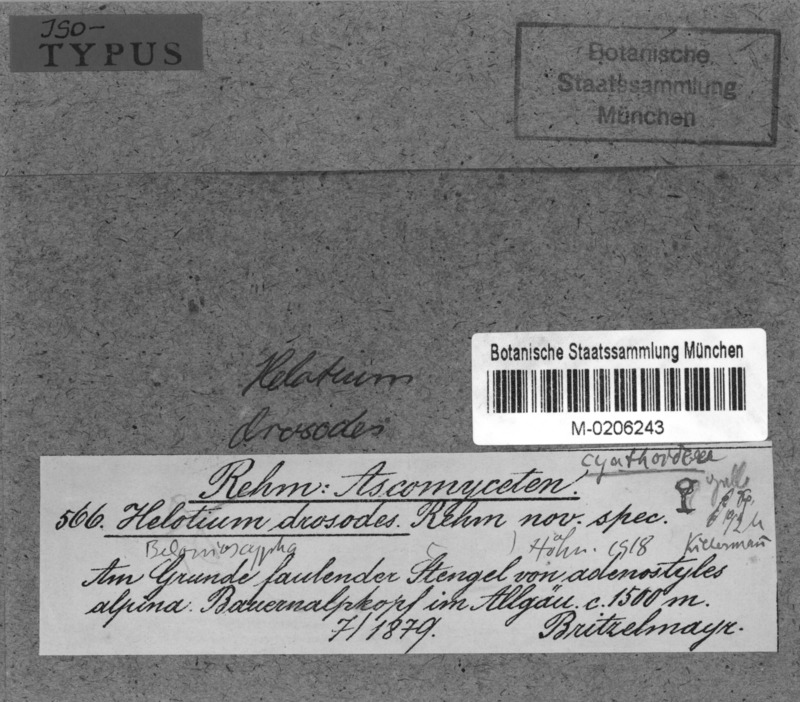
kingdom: Fungi
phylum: Ascomycota
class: Leotiomycetes
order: Helotiales
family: Pezizellaceae
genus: Calycina
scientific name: Calycina drosodes
